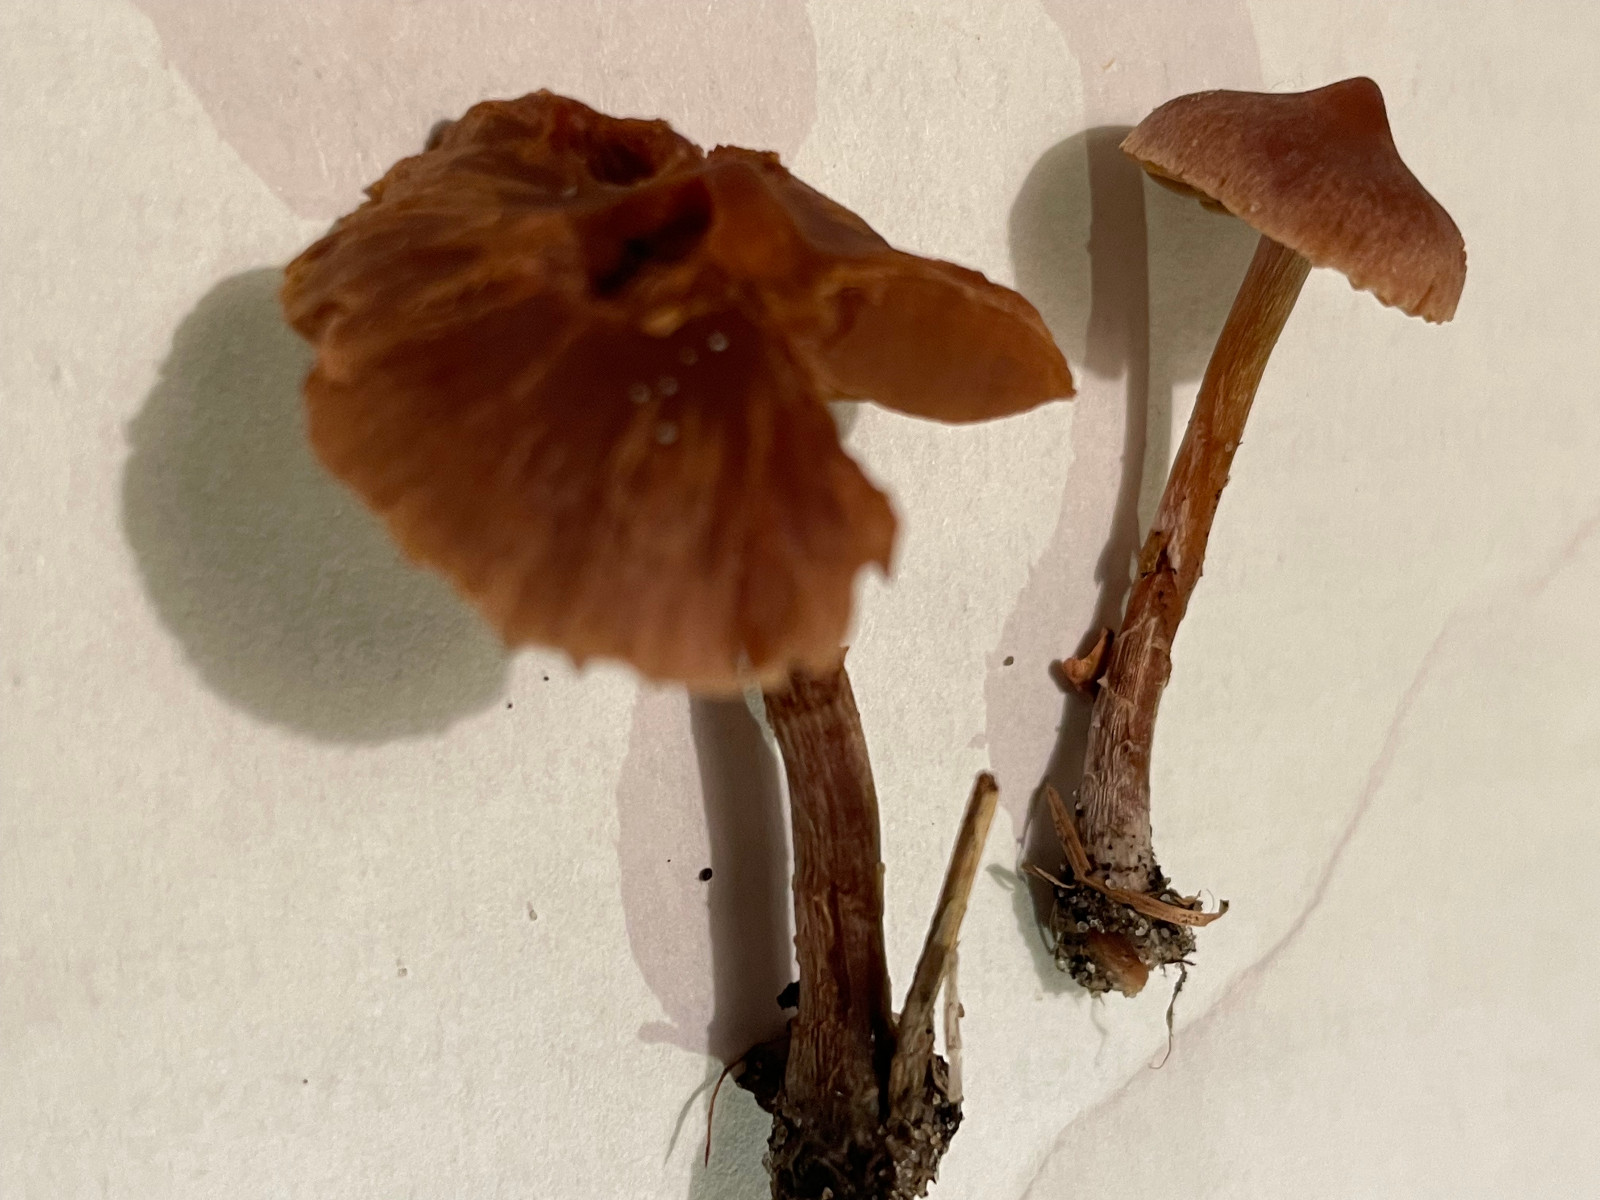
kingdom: Fungi
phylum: Basidiomycota
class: Agaricomycetes
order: Agaricales
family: Cortinariaceae
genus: Cortinarius
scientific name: Cortinarius
